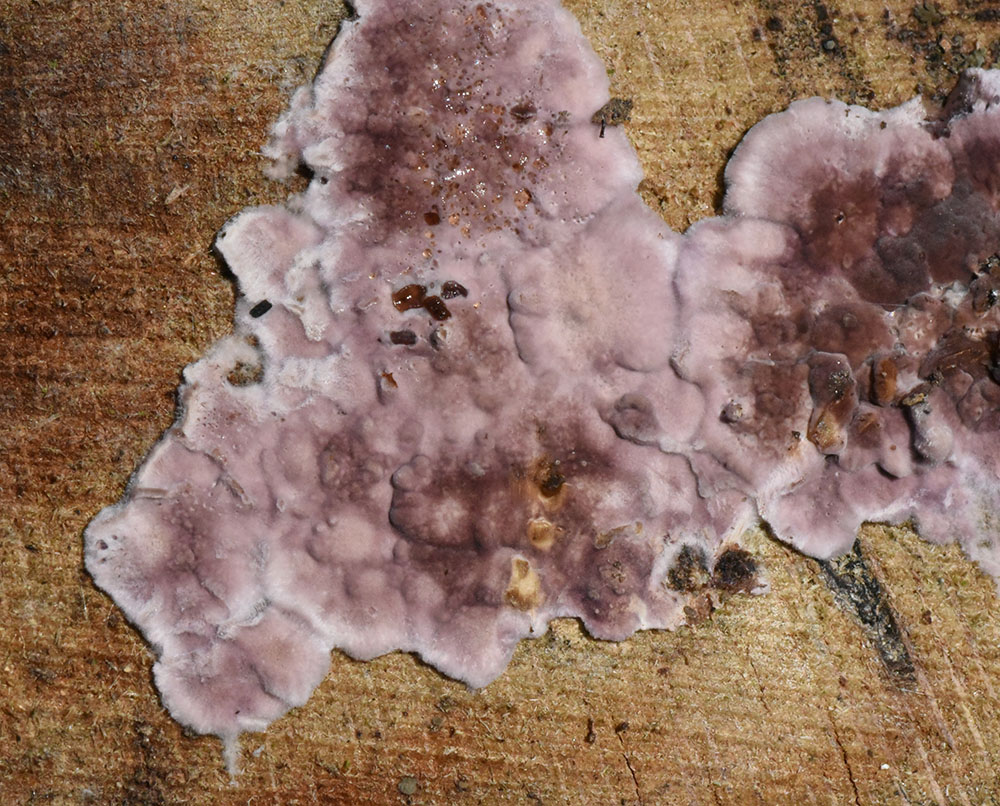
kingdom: Fungi
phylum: Basidiomycota
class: Agaricomycetes
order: Agaricales
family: Cyphellaceae
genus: Chondrostereum
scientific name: Chondrostereum purpureum
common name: Silver leaf disease
